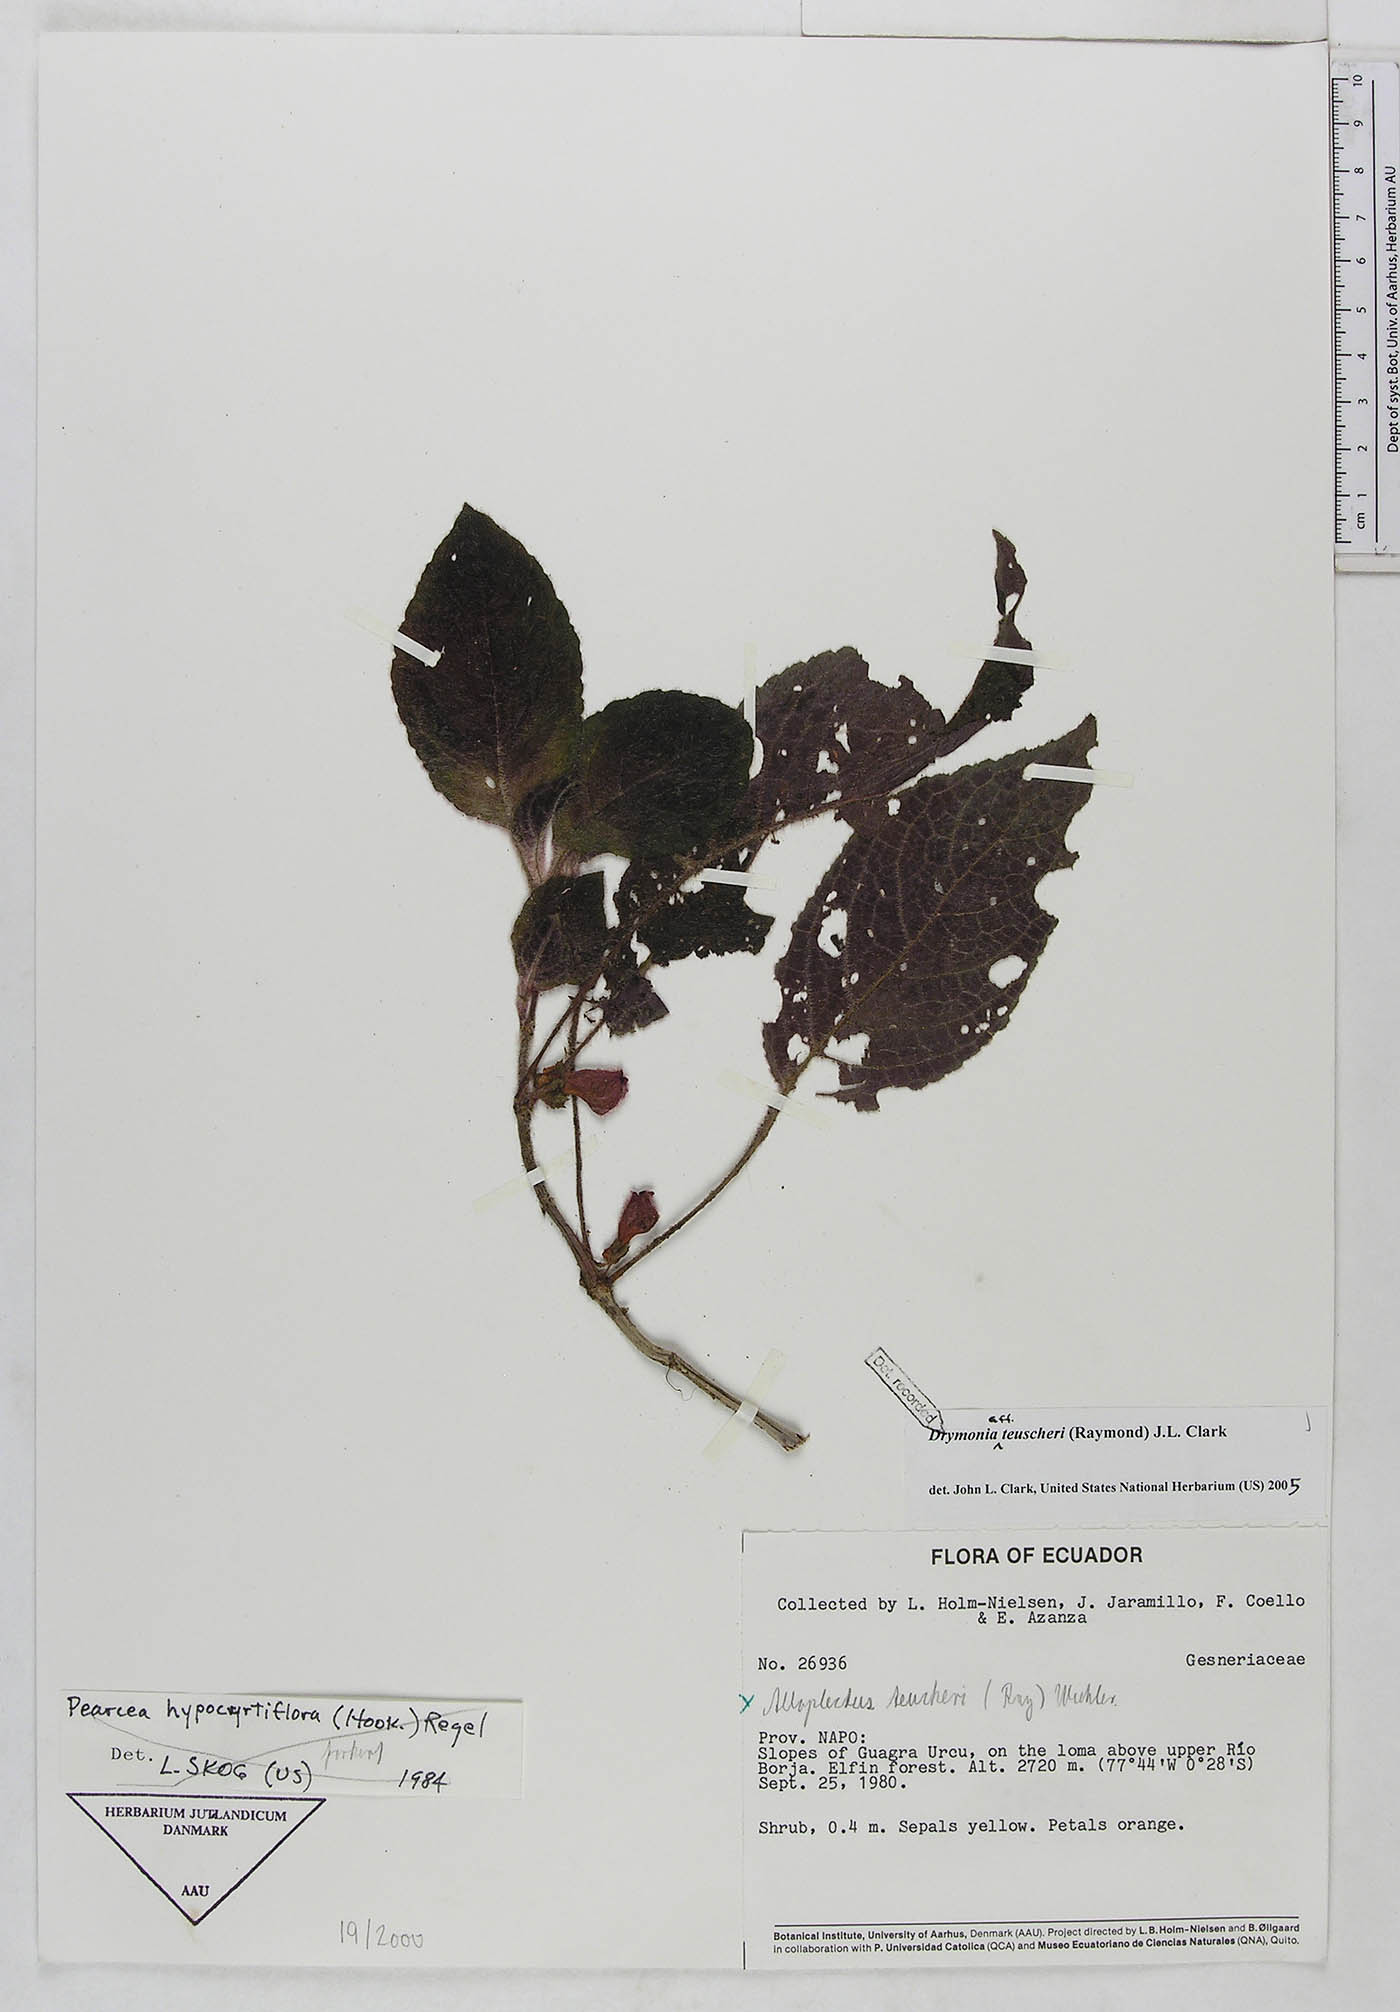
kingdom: Plantae
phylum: Tracheophyta
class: Magnoliopsida
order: Lamiales
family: Gesneriaceae
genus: Drymonia
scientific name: Drymonia teuscheri
